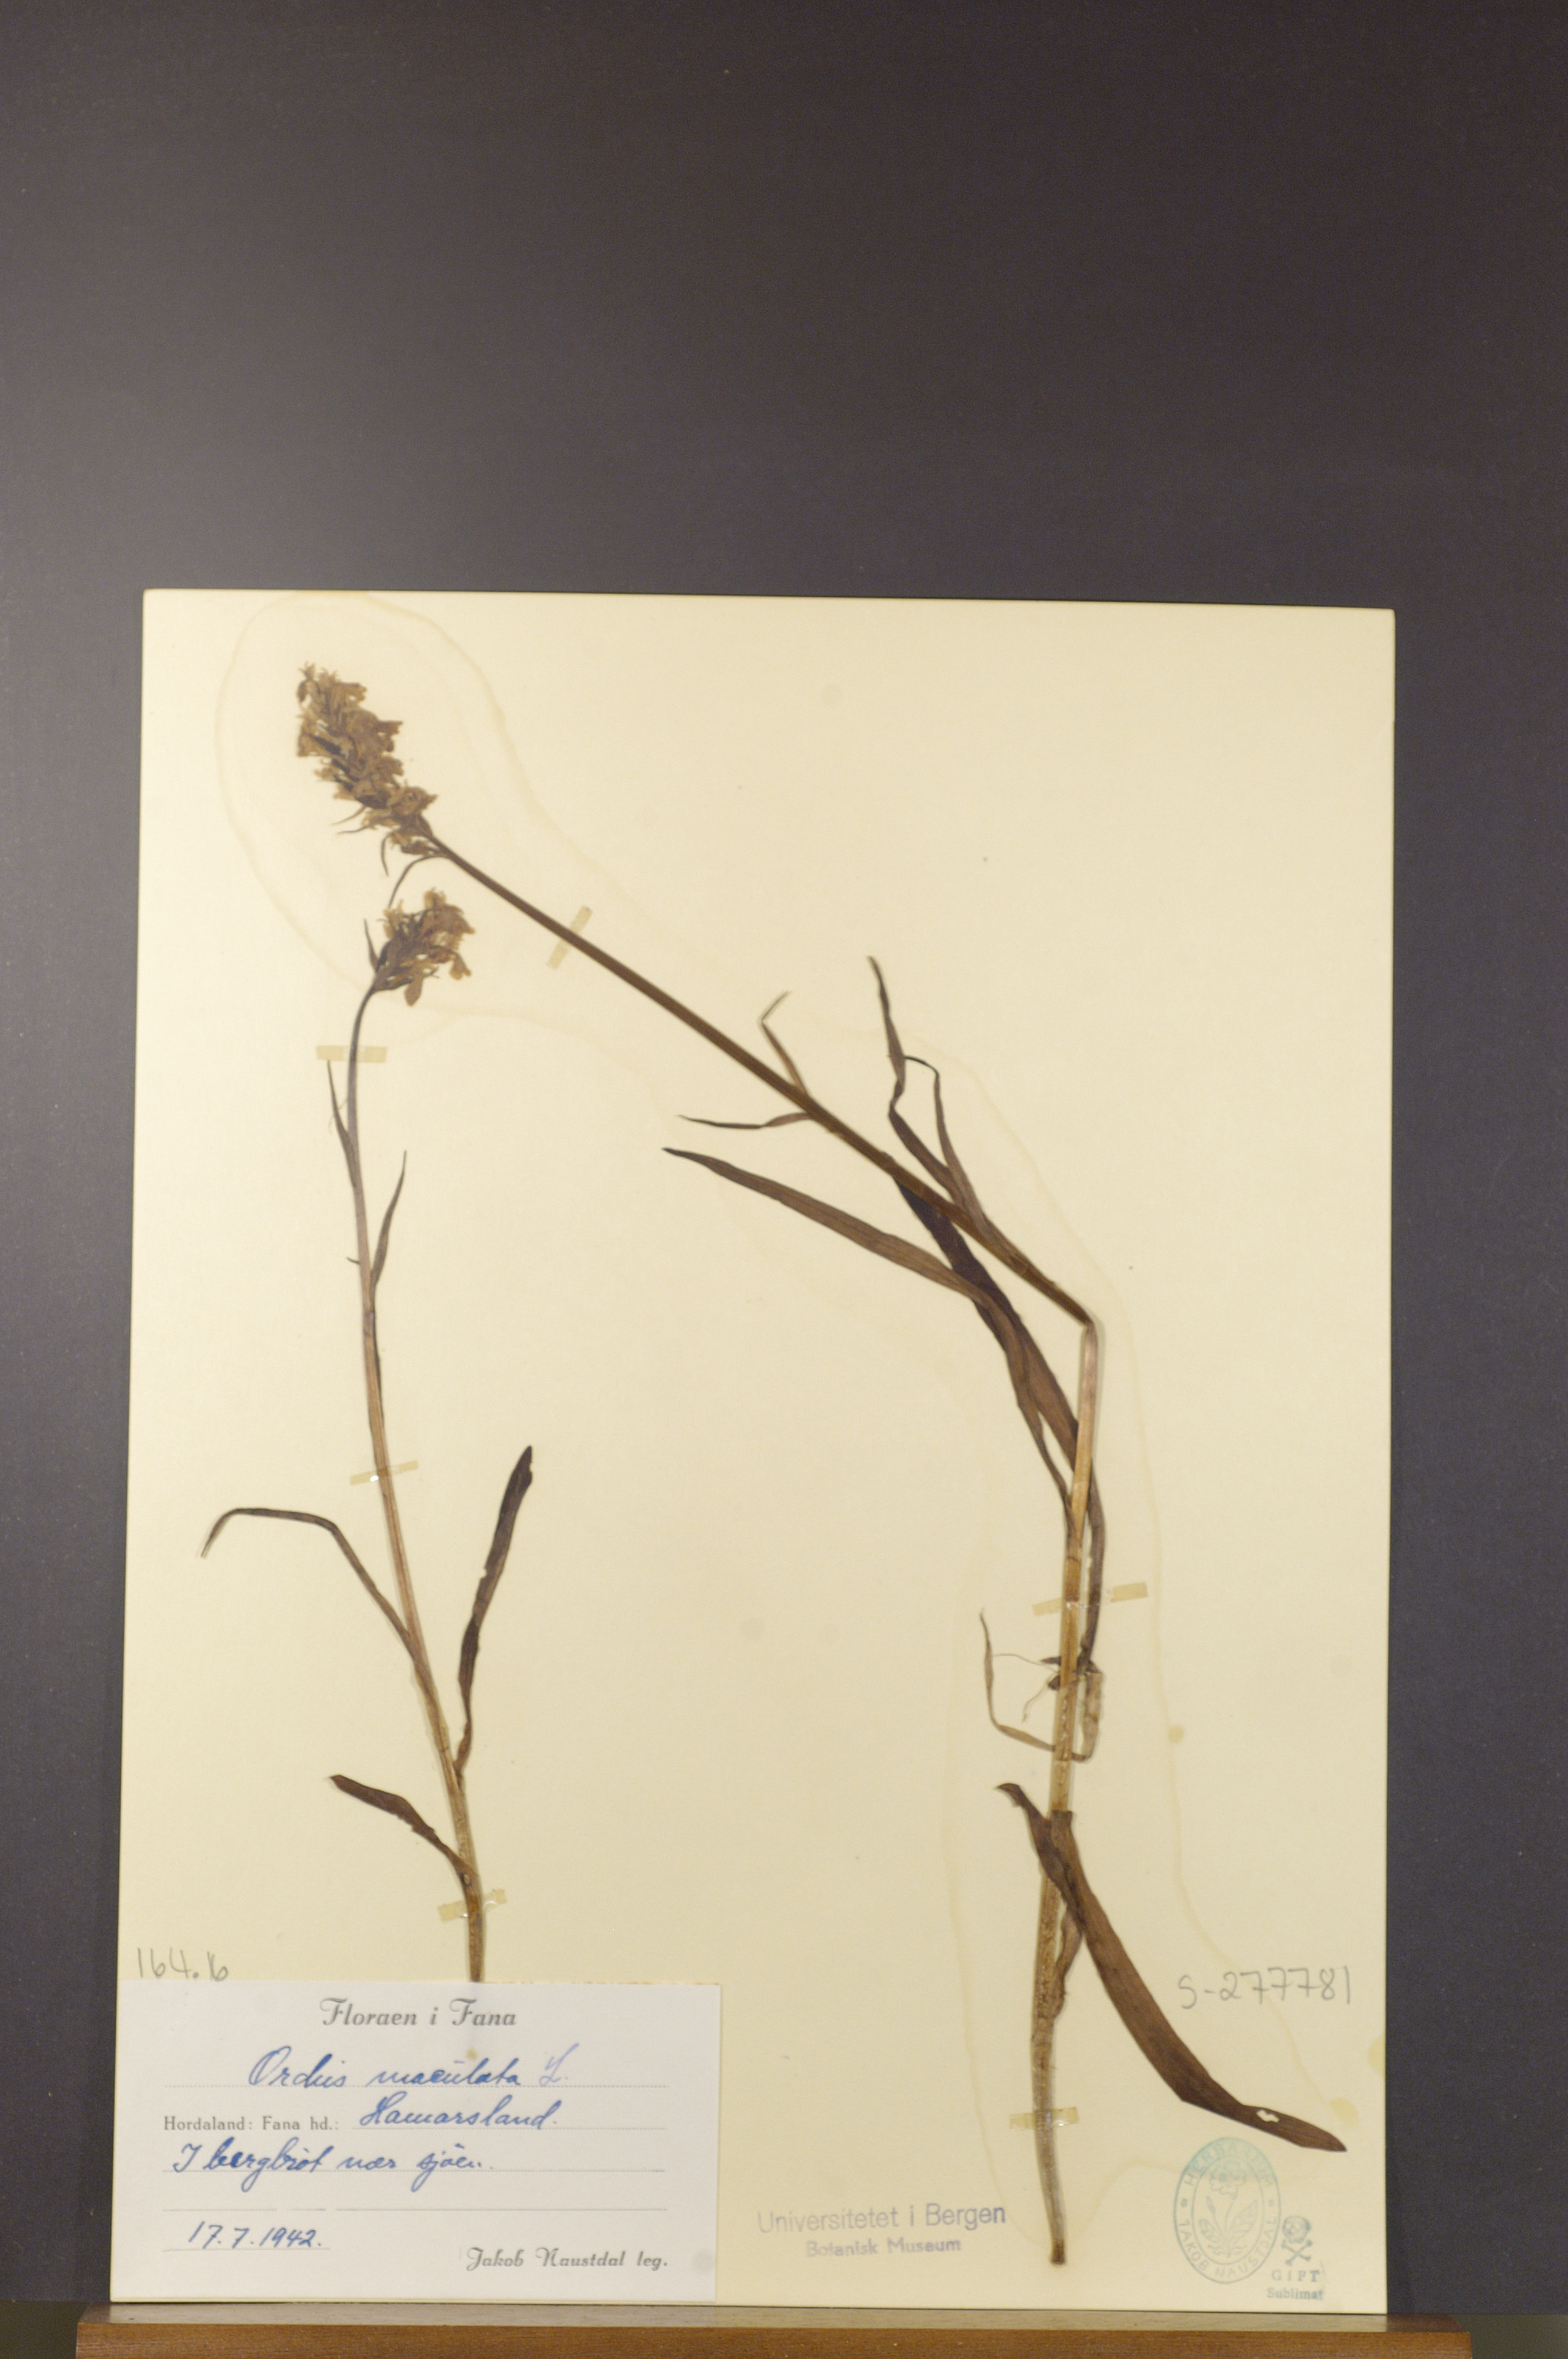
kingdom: Plantae
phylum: Tracheophyta
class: Liliopsida
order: Asparagales
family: Orchidaceae
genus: Dactylorhiza
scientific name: Dactylorhiza maculata
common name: Heath spotted-orchid
